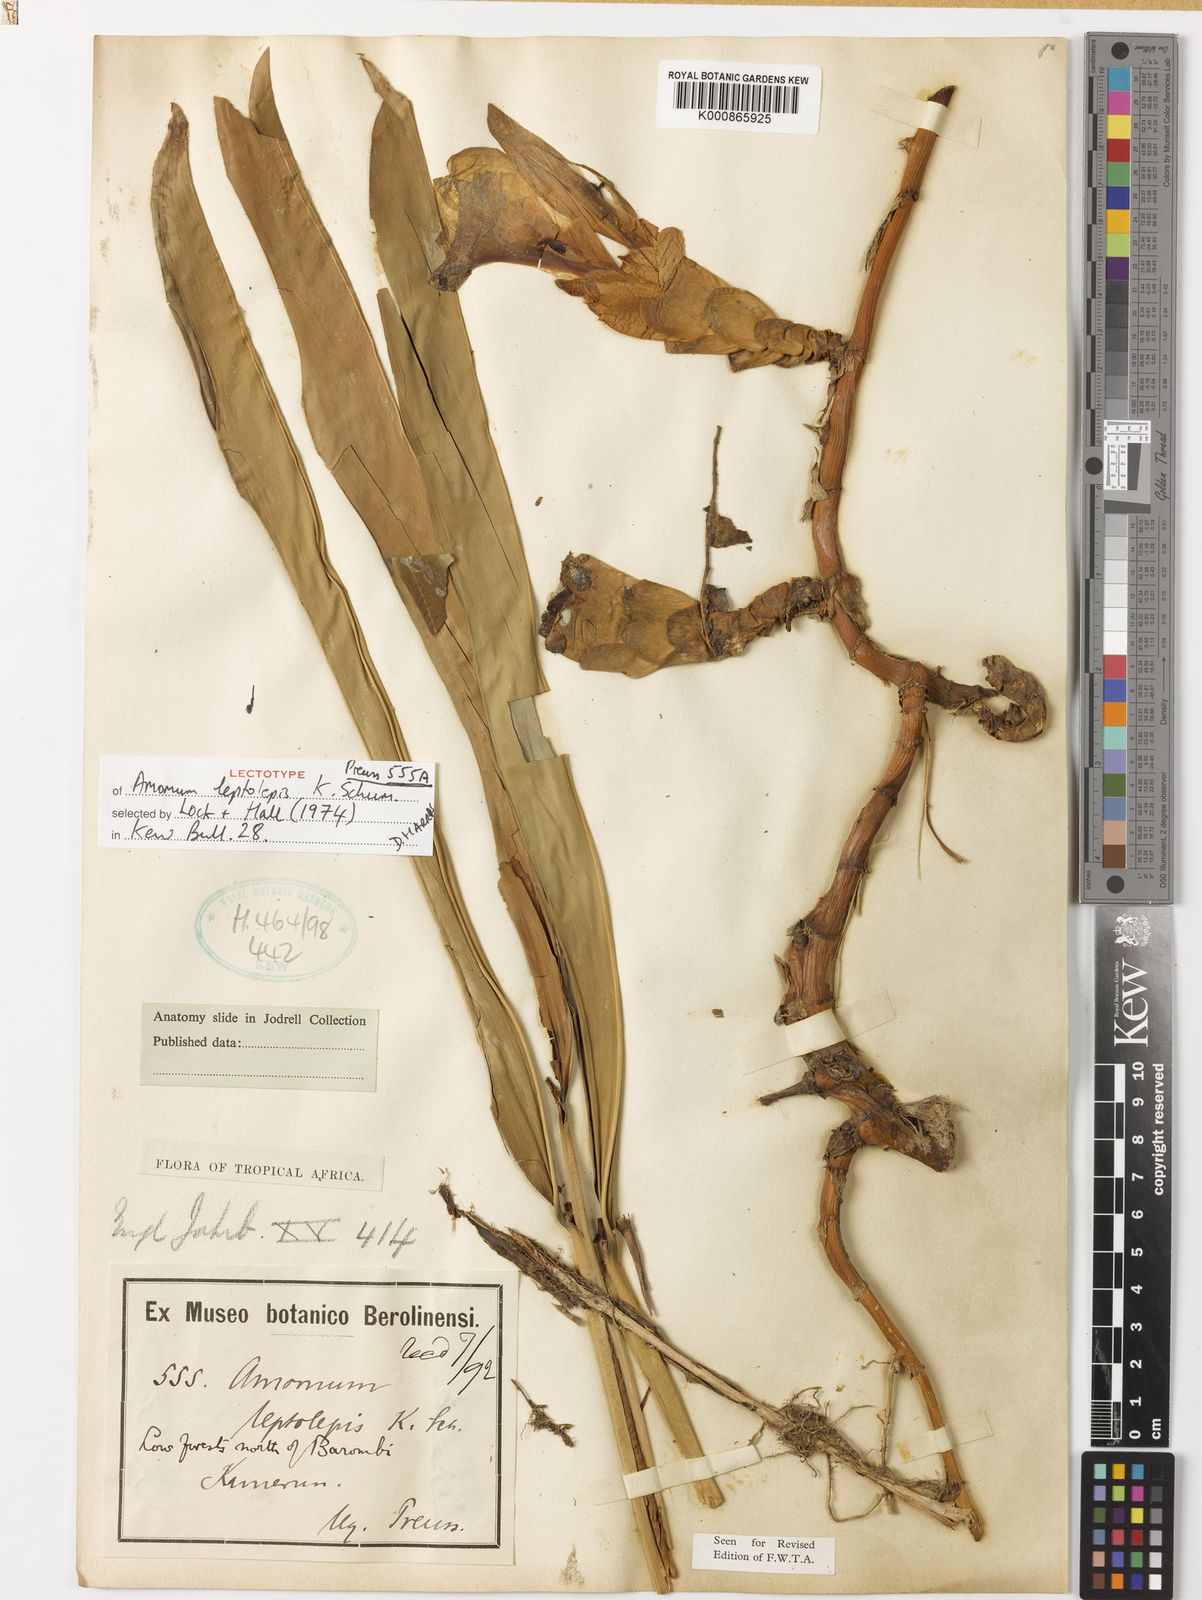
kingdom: Plantae
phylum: Tracheophyta
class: Liliopsida
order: Zingiberales
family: Zingiberaceae
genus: Aframomum
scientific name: Aframomum leptolepis
